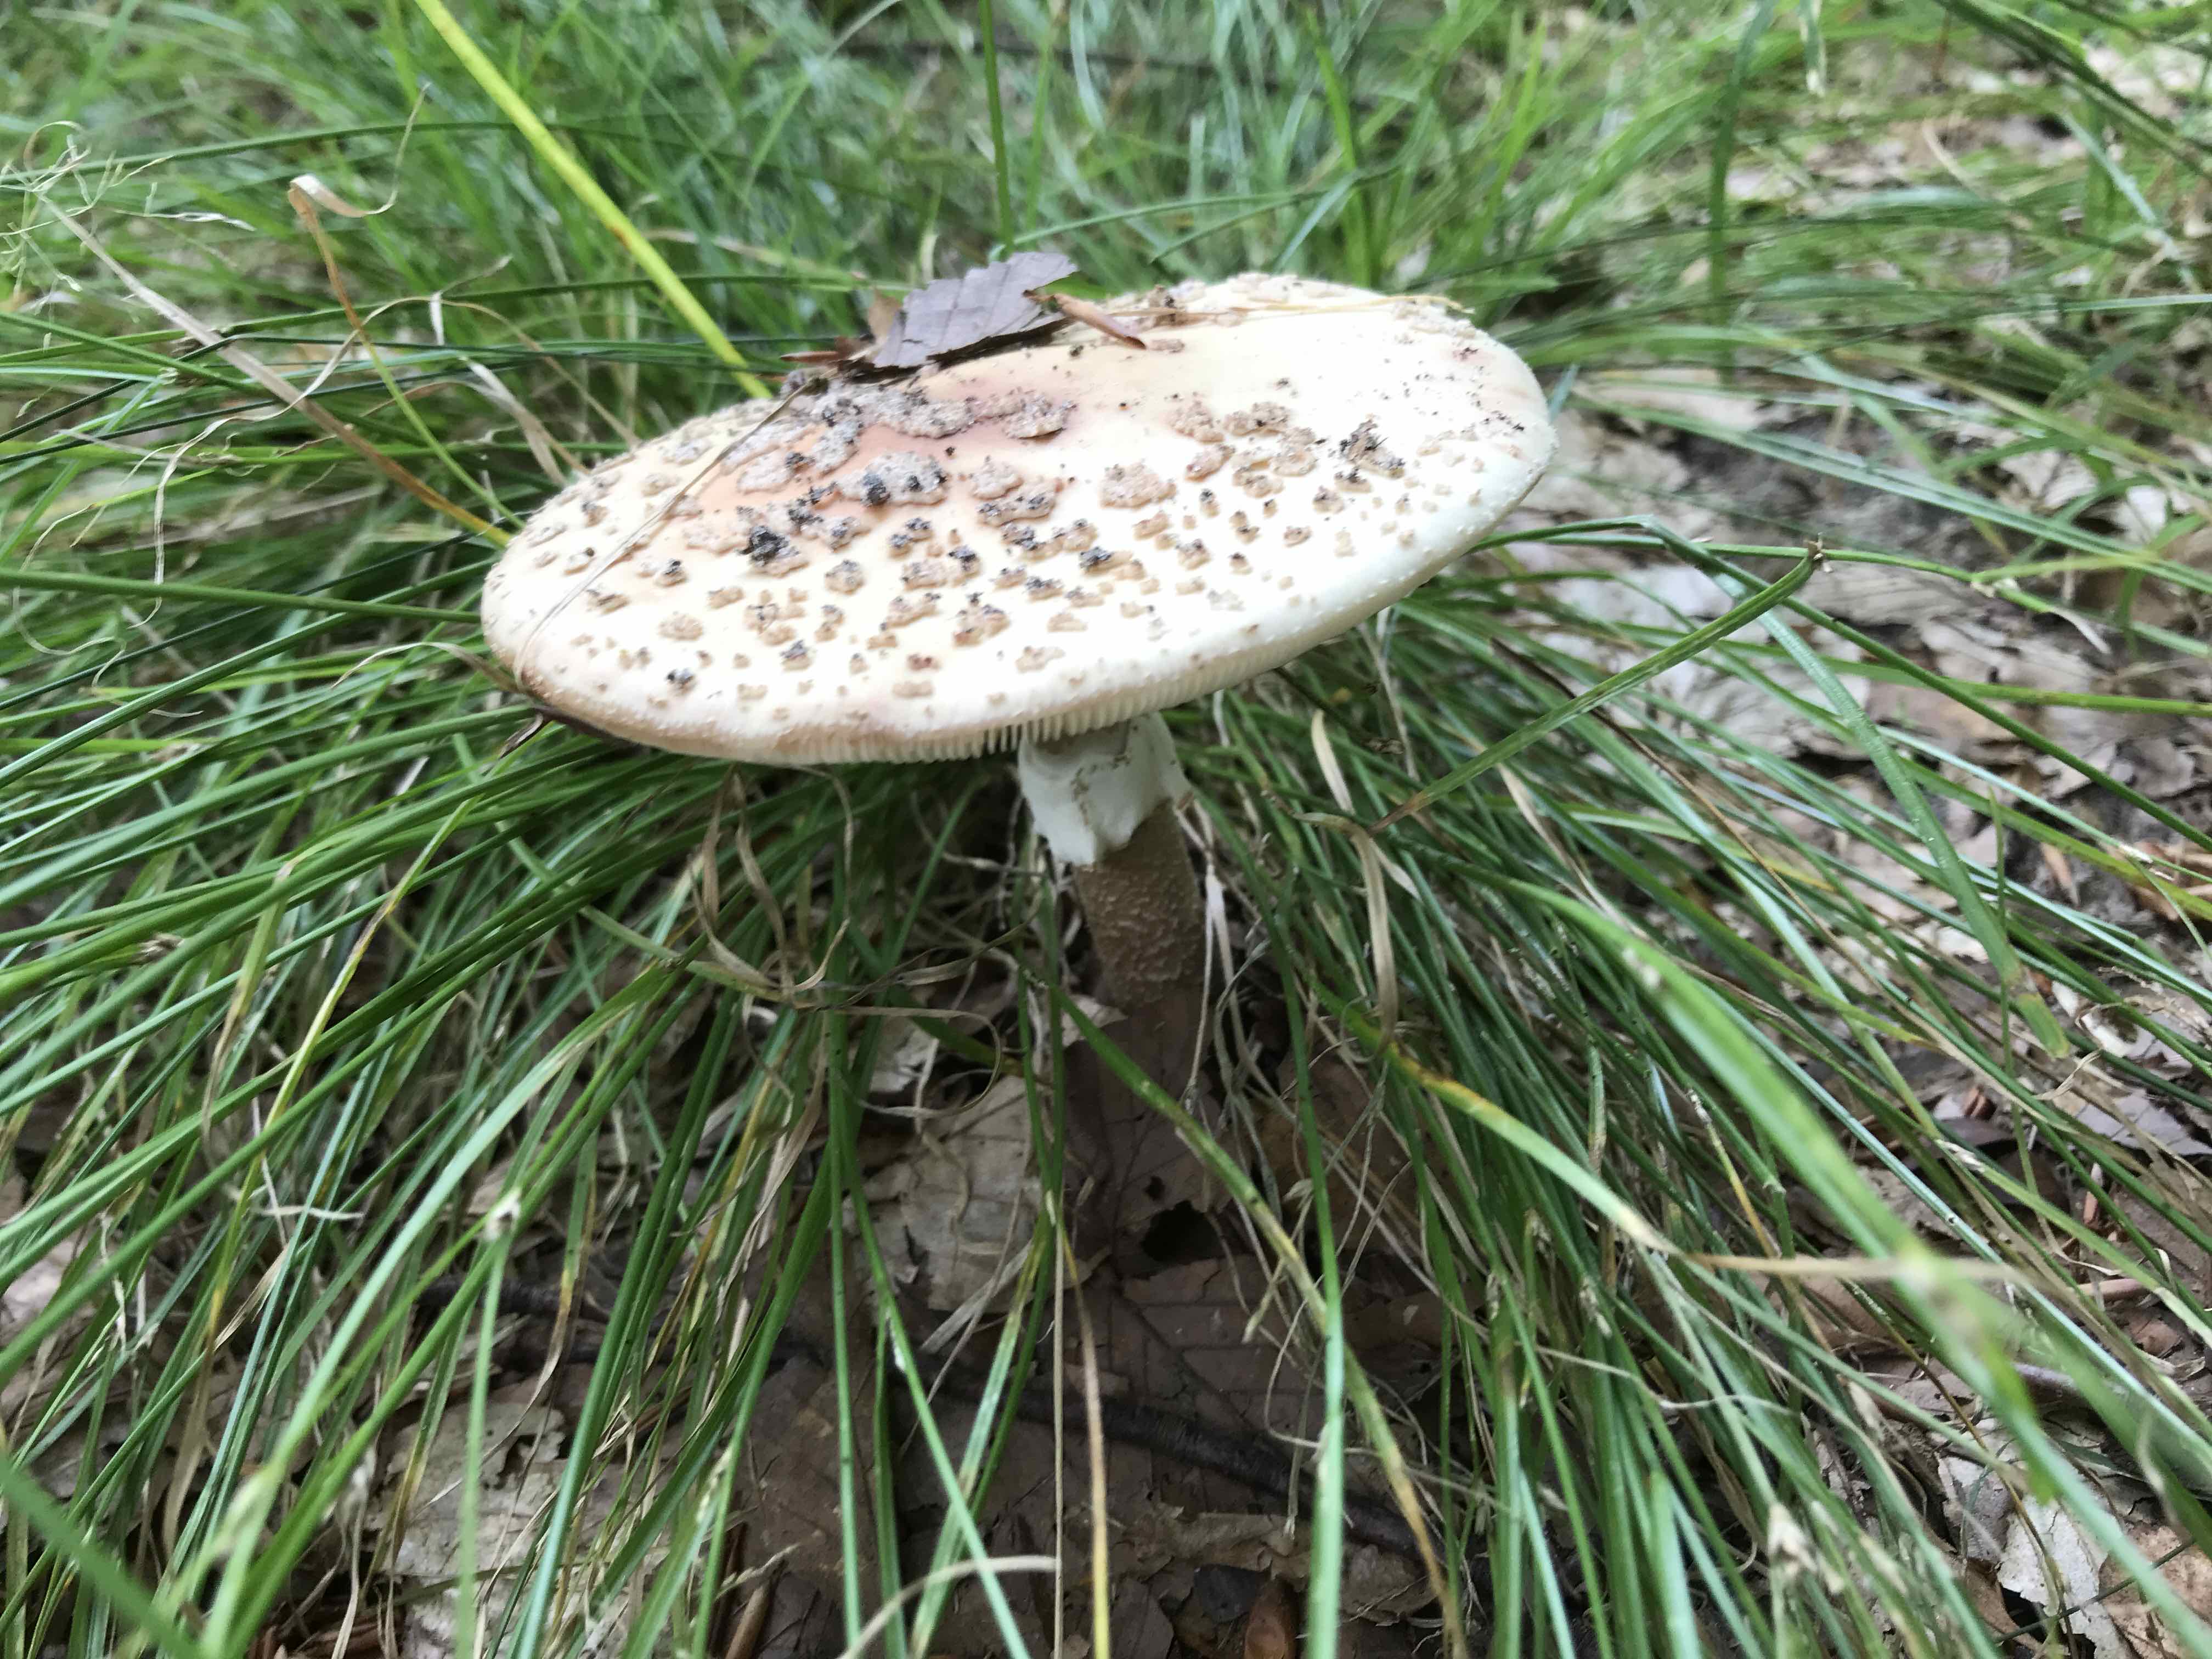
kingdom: Fungi
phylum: Basidiomycota
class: Agaricomycetes
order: Agaricales
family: Amanitaceae
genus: Amanita
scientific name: Amanita rubescens
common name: rødmende fluesvamp
